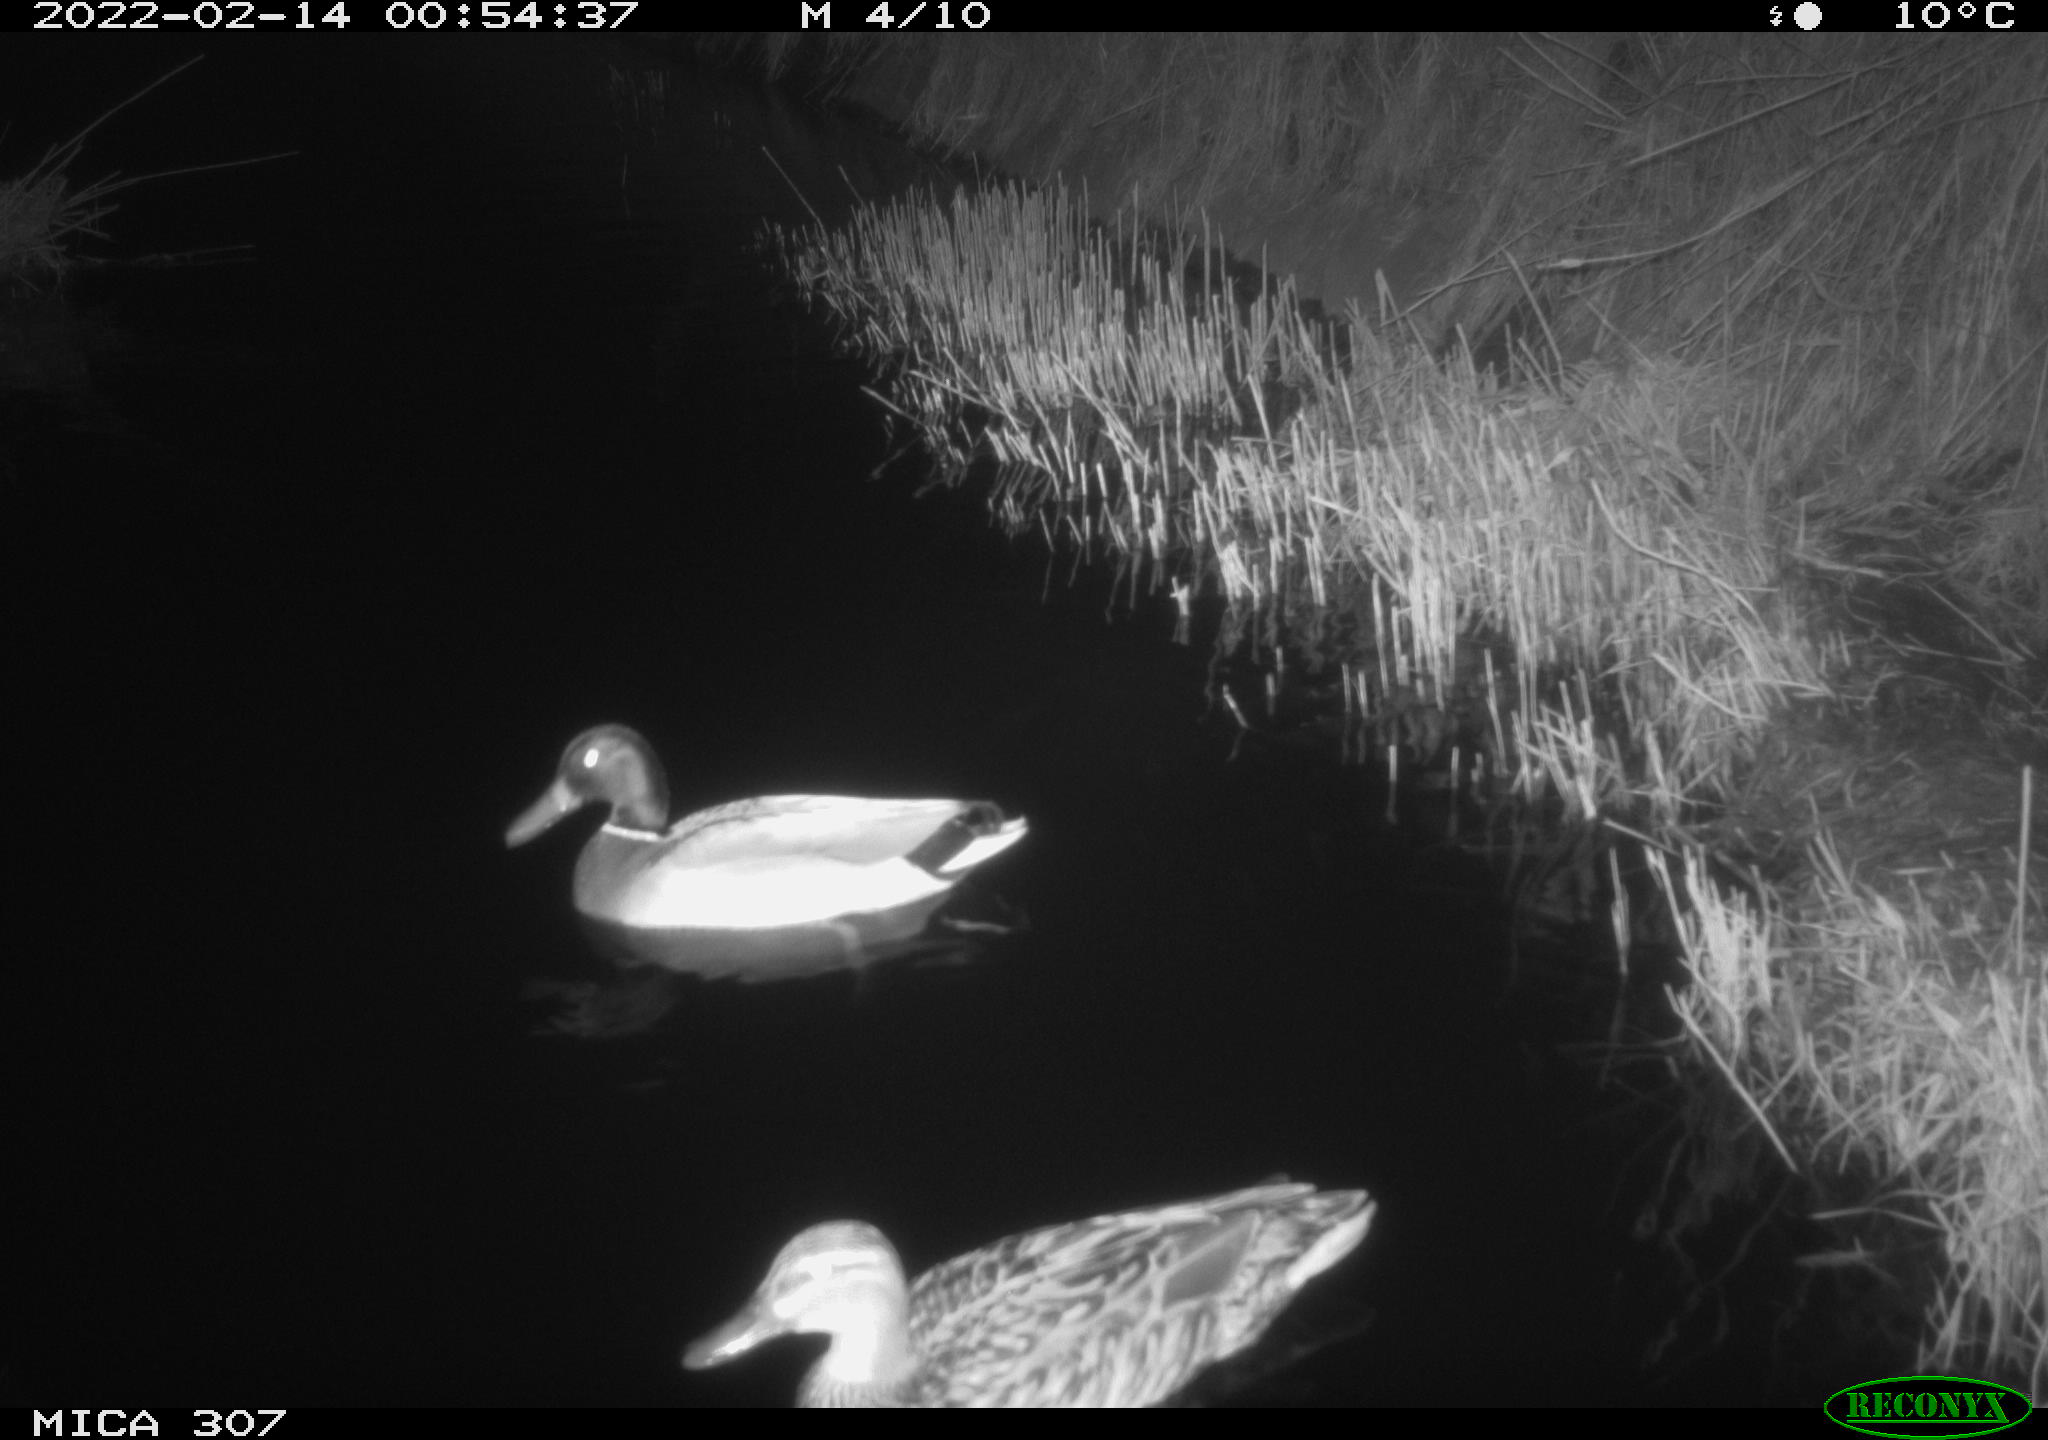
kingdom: Animalia
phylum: Chordata
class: Aves
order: Anseriformes
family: Anatidae
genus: Anas
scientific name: Anas platyrhynchos
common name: Mallard
